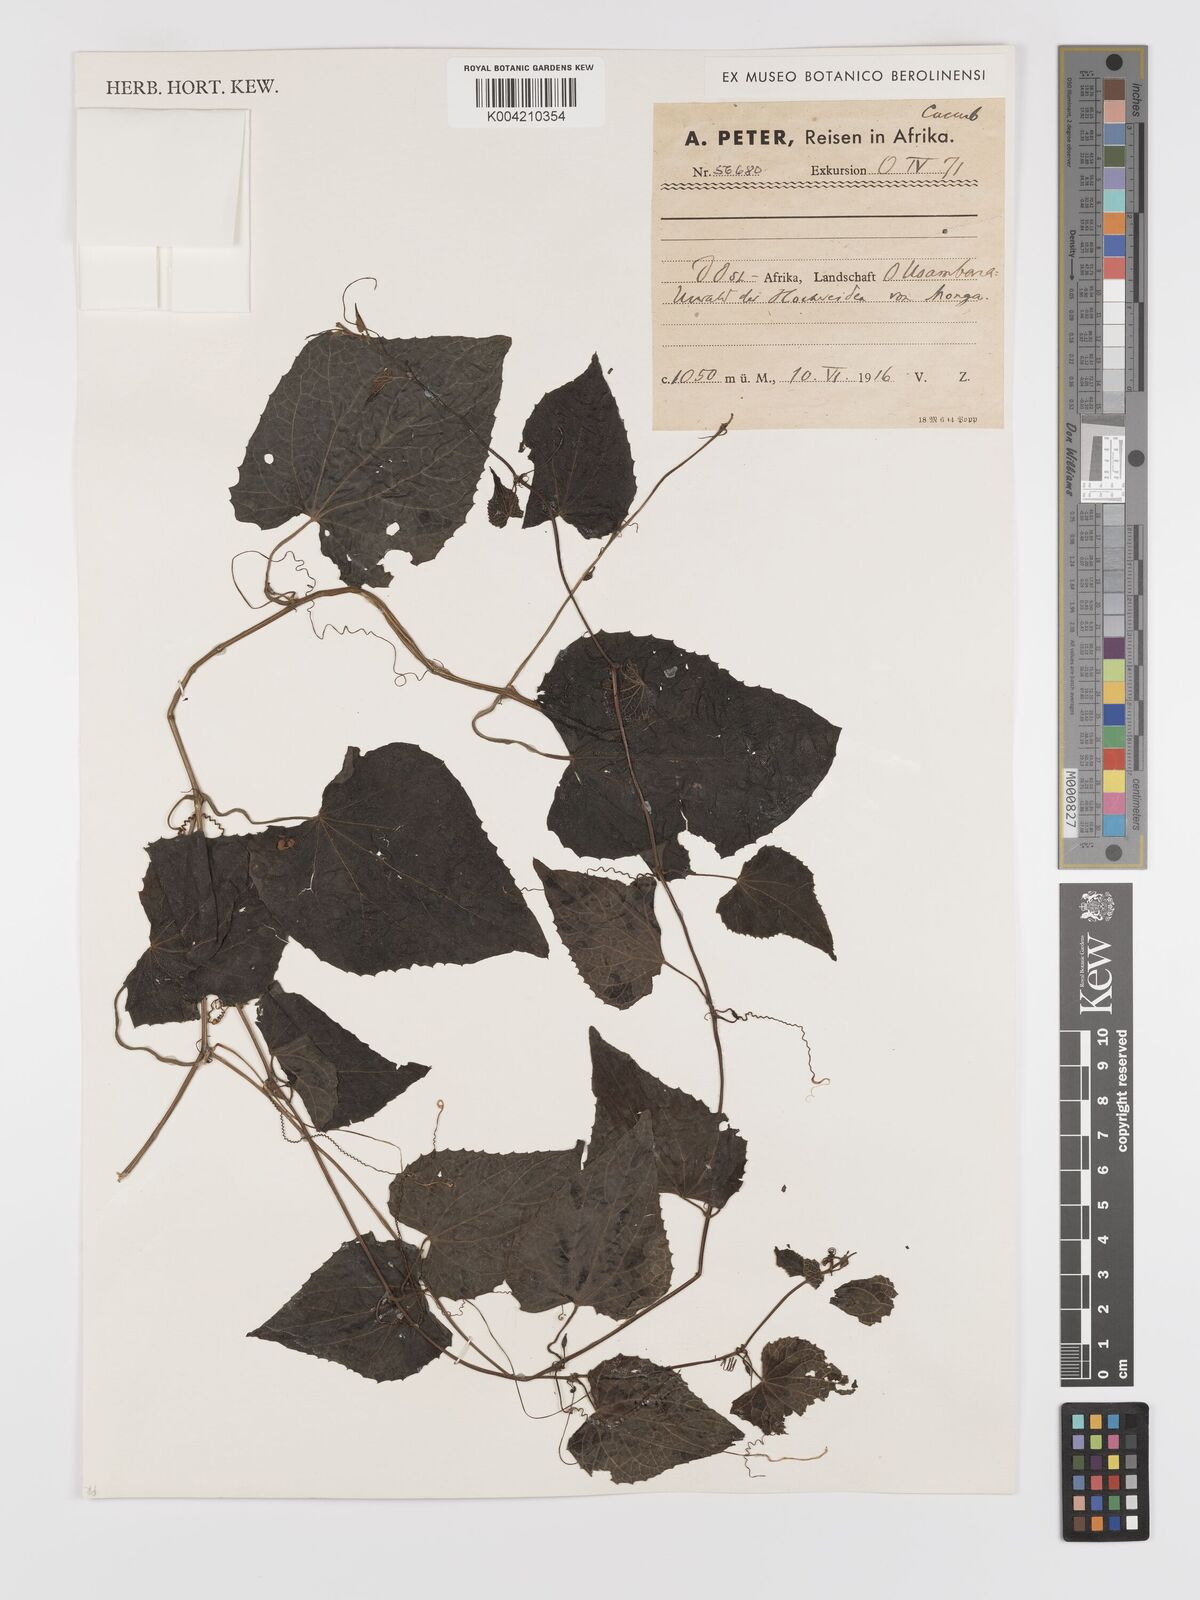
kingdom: Plantae
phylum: Tracheophyta
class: Magnoliopsida
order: Cucurbitales
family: Cucurbitaceae
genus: Zehneria
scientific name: Zehneria emirnensis
